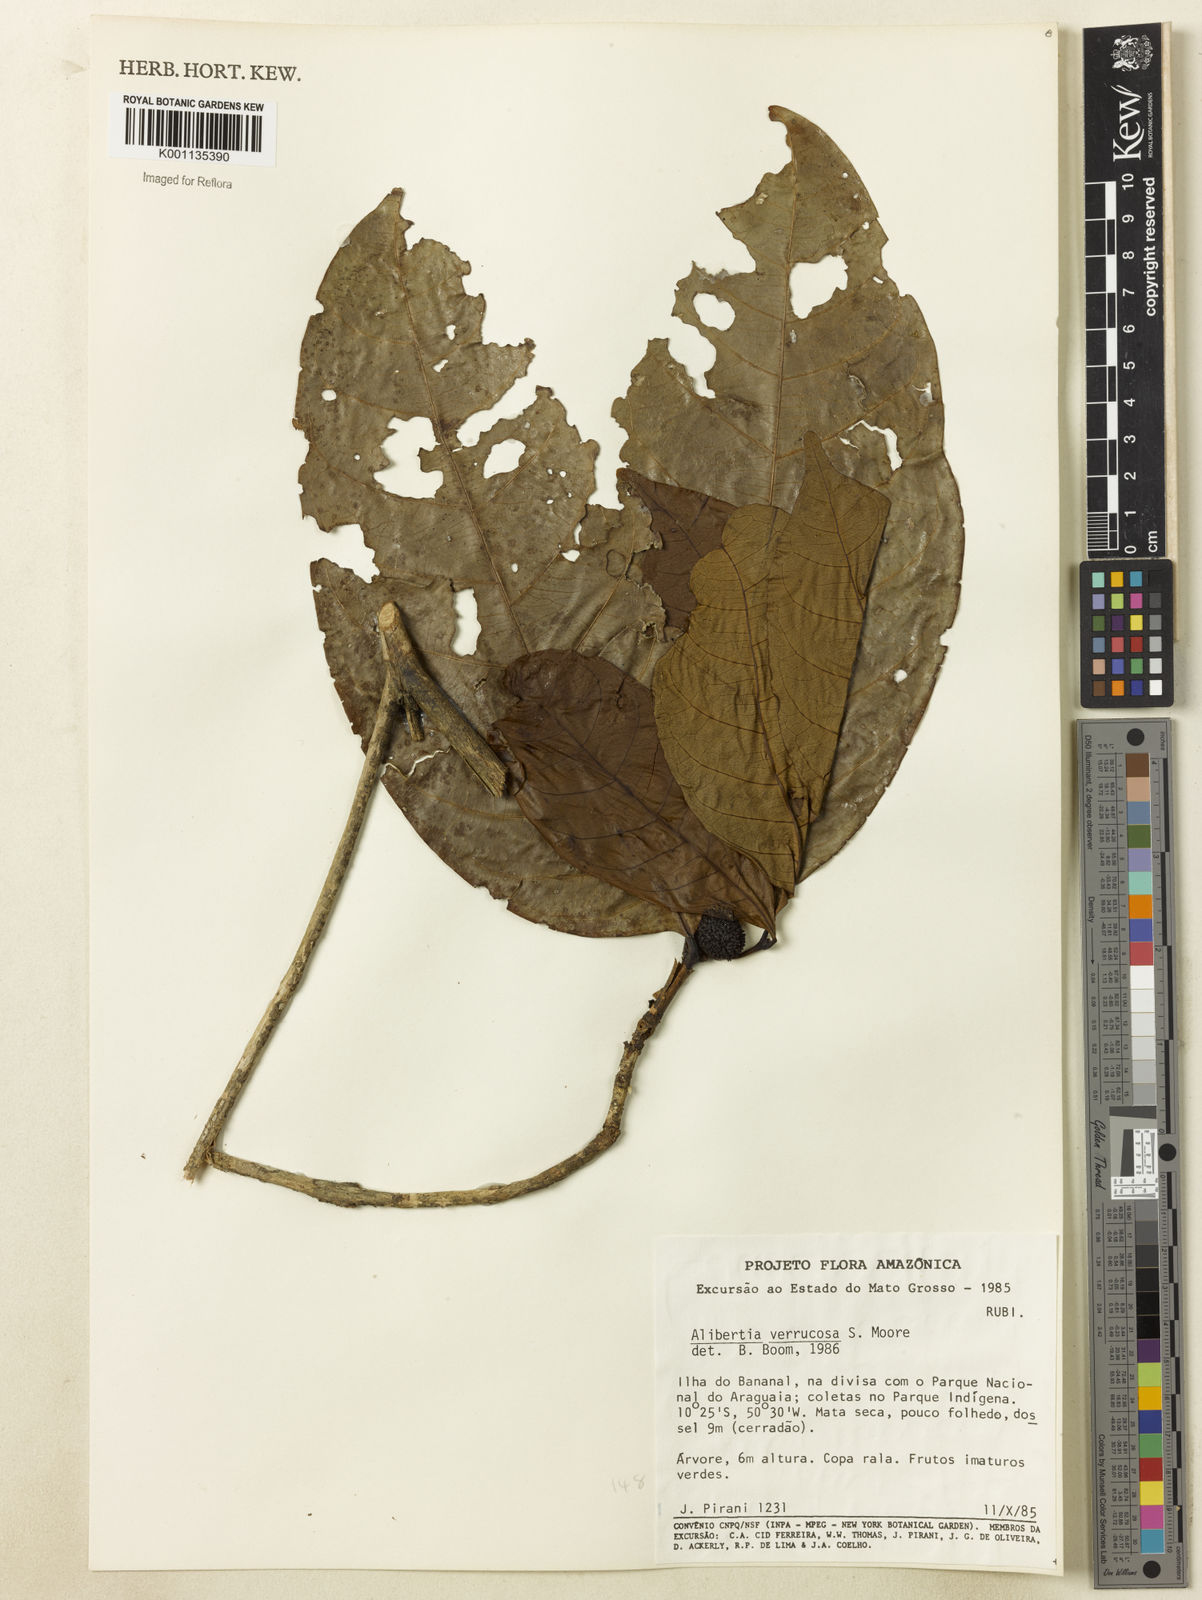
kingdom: Plantae
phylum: Tracheophyta
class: Magnoliopsida
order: Gentianales
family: Rubiaceae
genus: Cordiera
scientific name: Cordiera macrophylla
